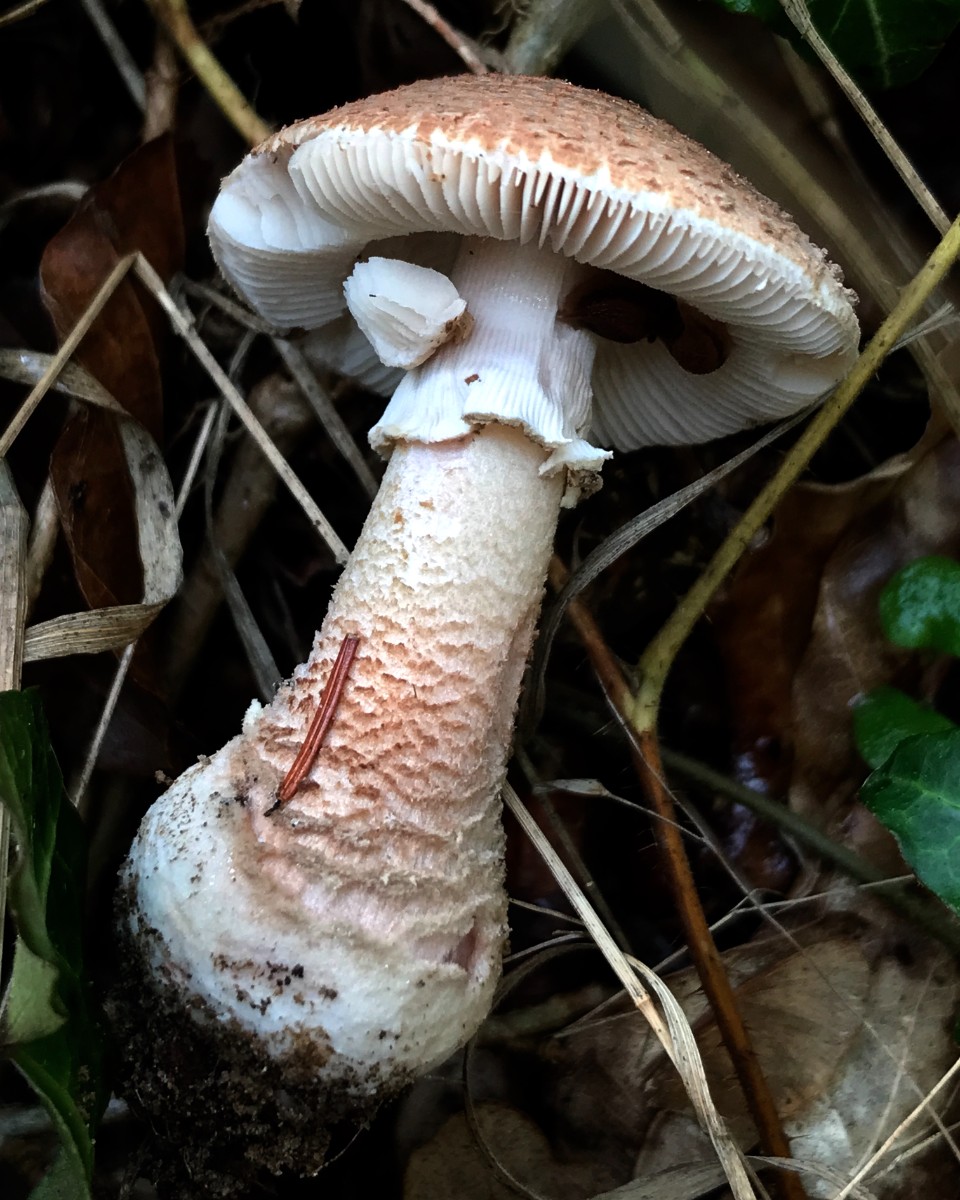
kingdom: Fungi
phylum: Basidiomycota
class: Agaricomycetes
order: Agaricales
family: Amanitaceae
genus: Amanita
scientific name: Amanita rubescens
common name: rødmende fluesvamp
